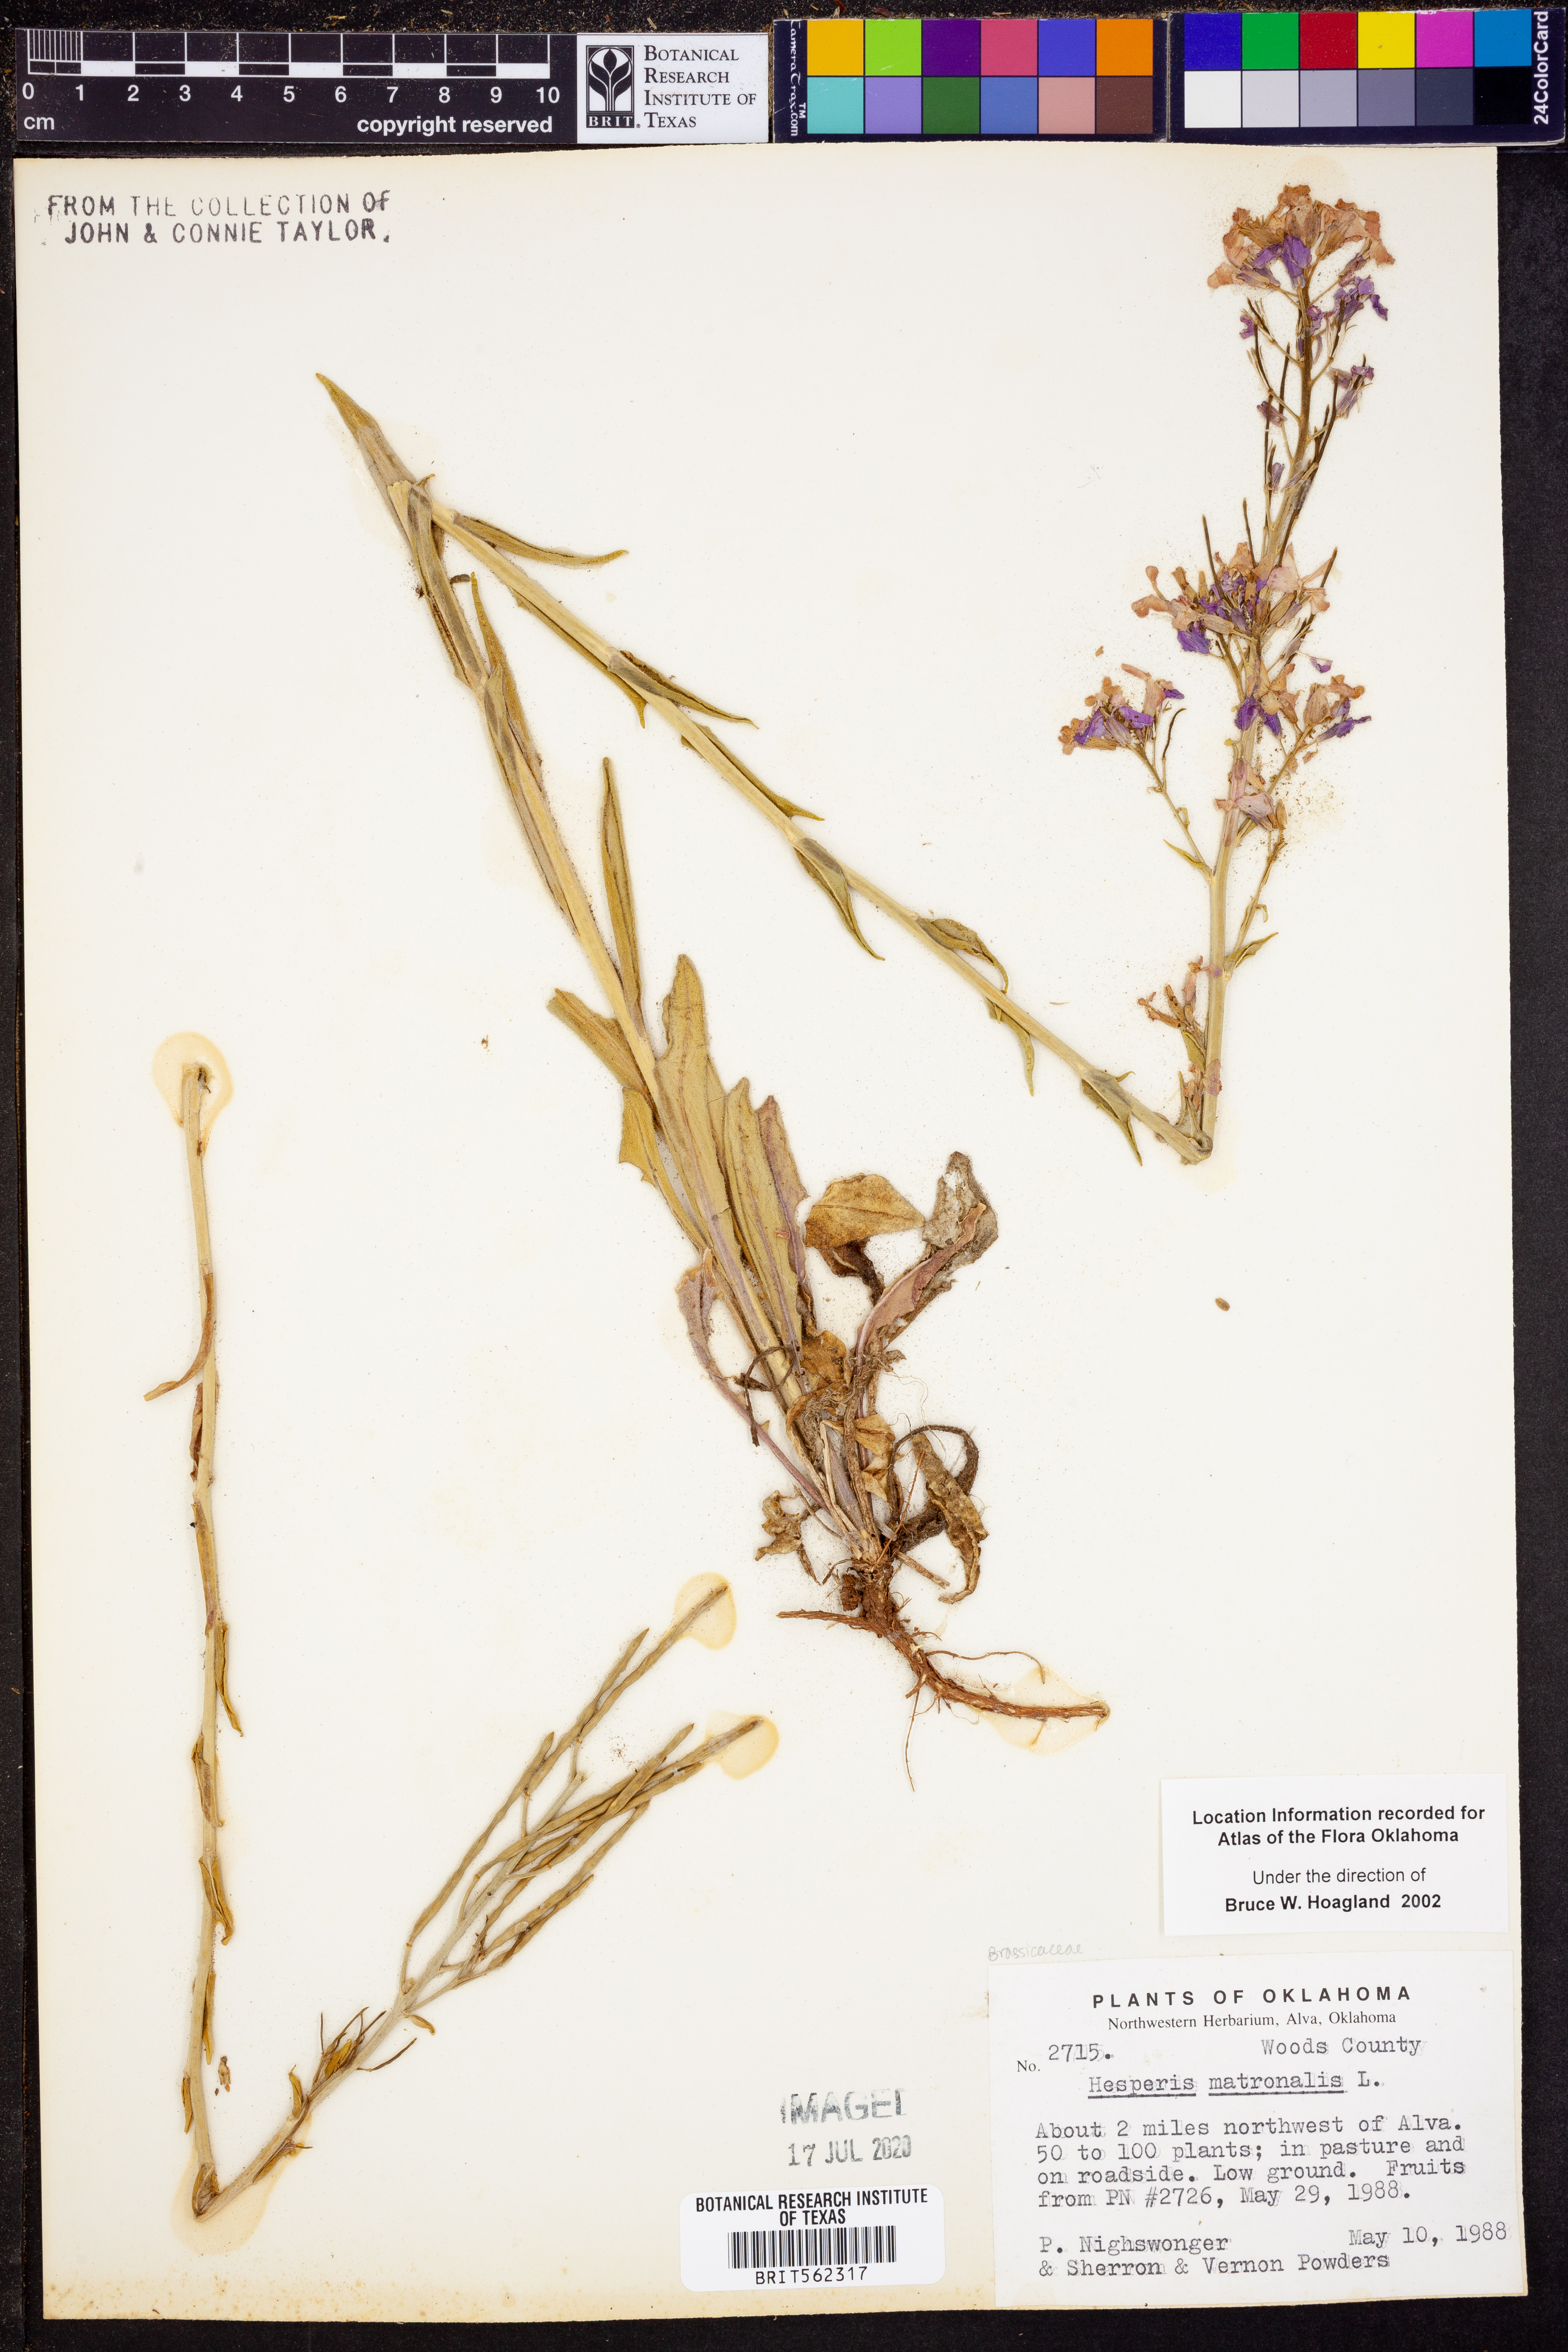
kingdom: Plantae
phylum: Tracheophyta
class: Magnoliopsida
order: Brassicales
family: Brassicaceae
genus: Hesperis
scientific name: Hesperis matronalis
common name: Dame's-violet
